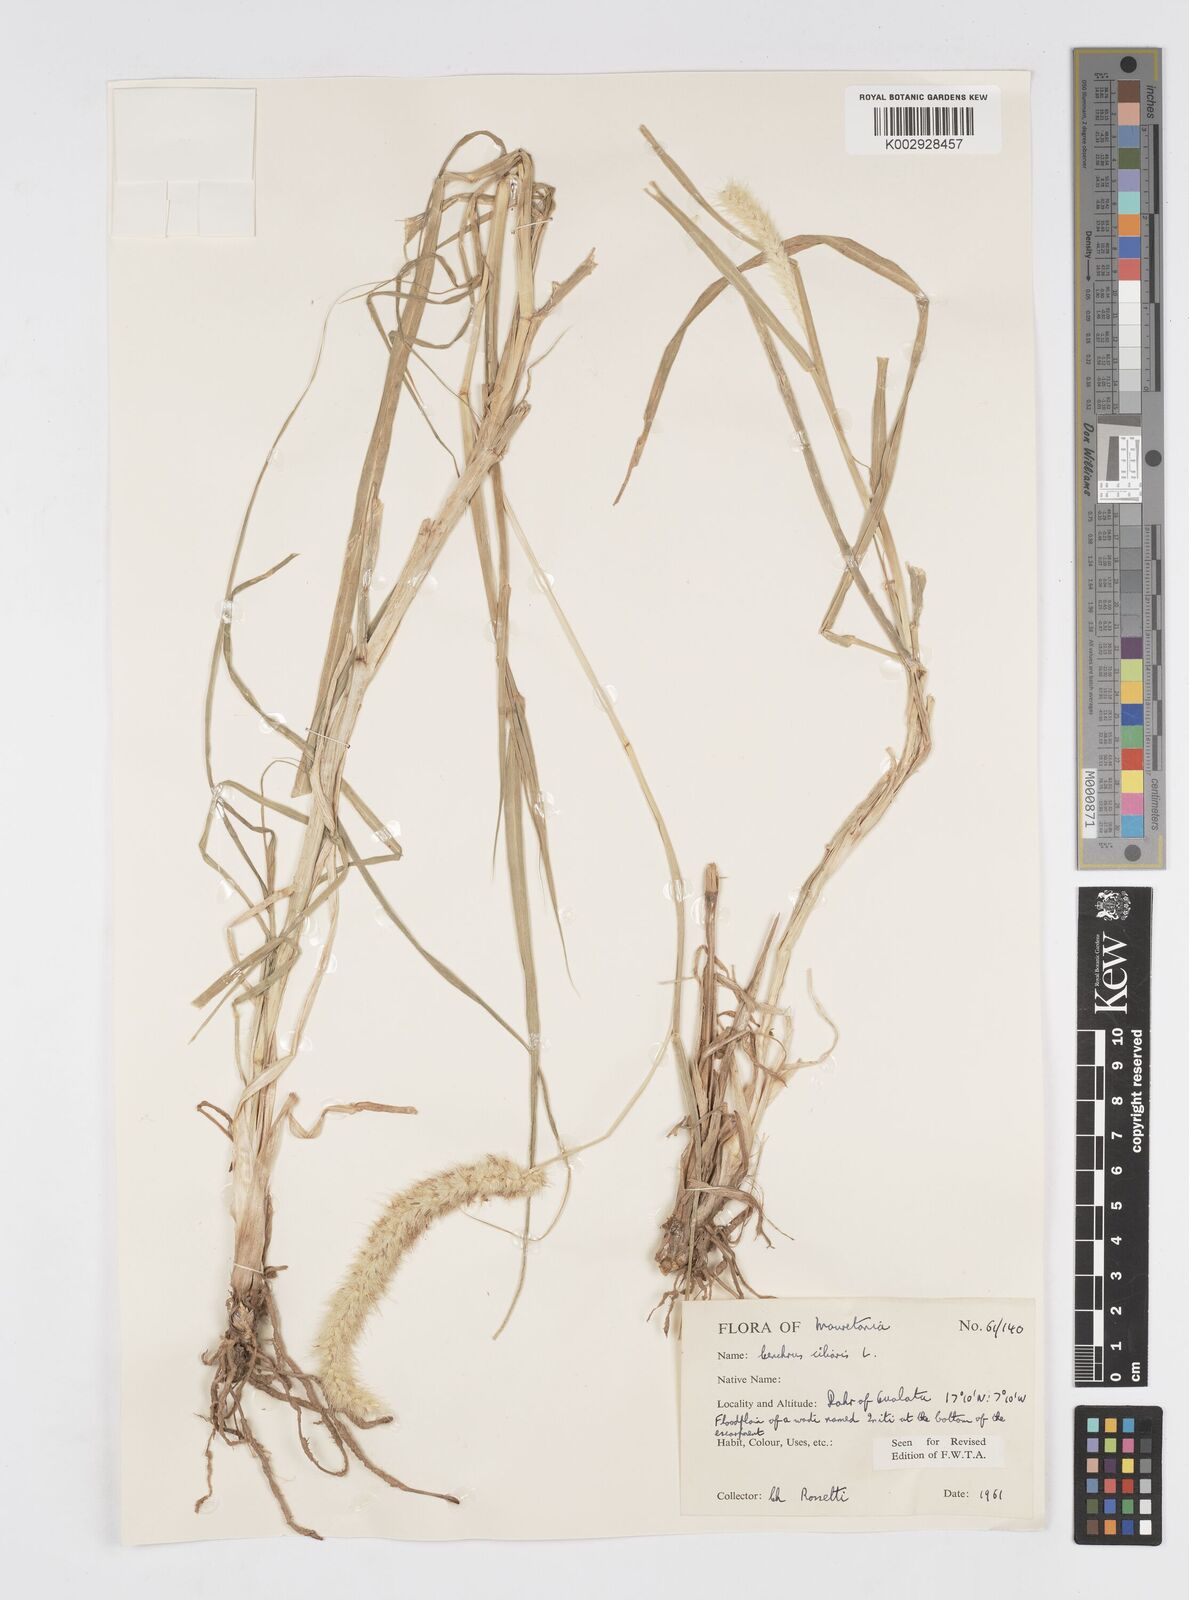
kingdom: Plantae
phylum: Tracheophyta
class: Liliopsida
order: Poales
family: Poaceae
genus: Cenchrus
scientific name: Cenchrus ciliaris
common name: Buffelgrass
